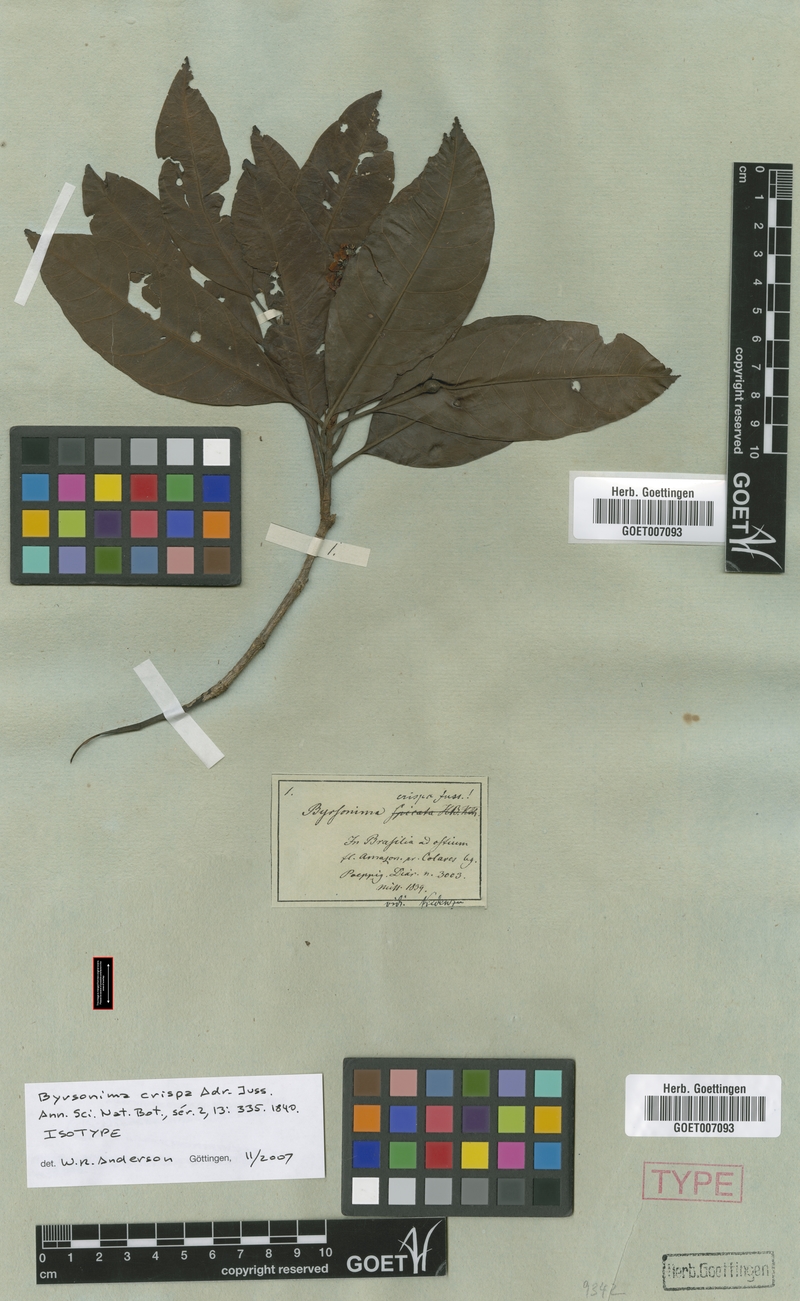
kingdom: Plantae
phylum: Tracheophyta
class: Magnoliopsida
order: Malpighiales
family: Malpighiaceae
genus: Byrsonima
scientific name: Byrsonima crispa
